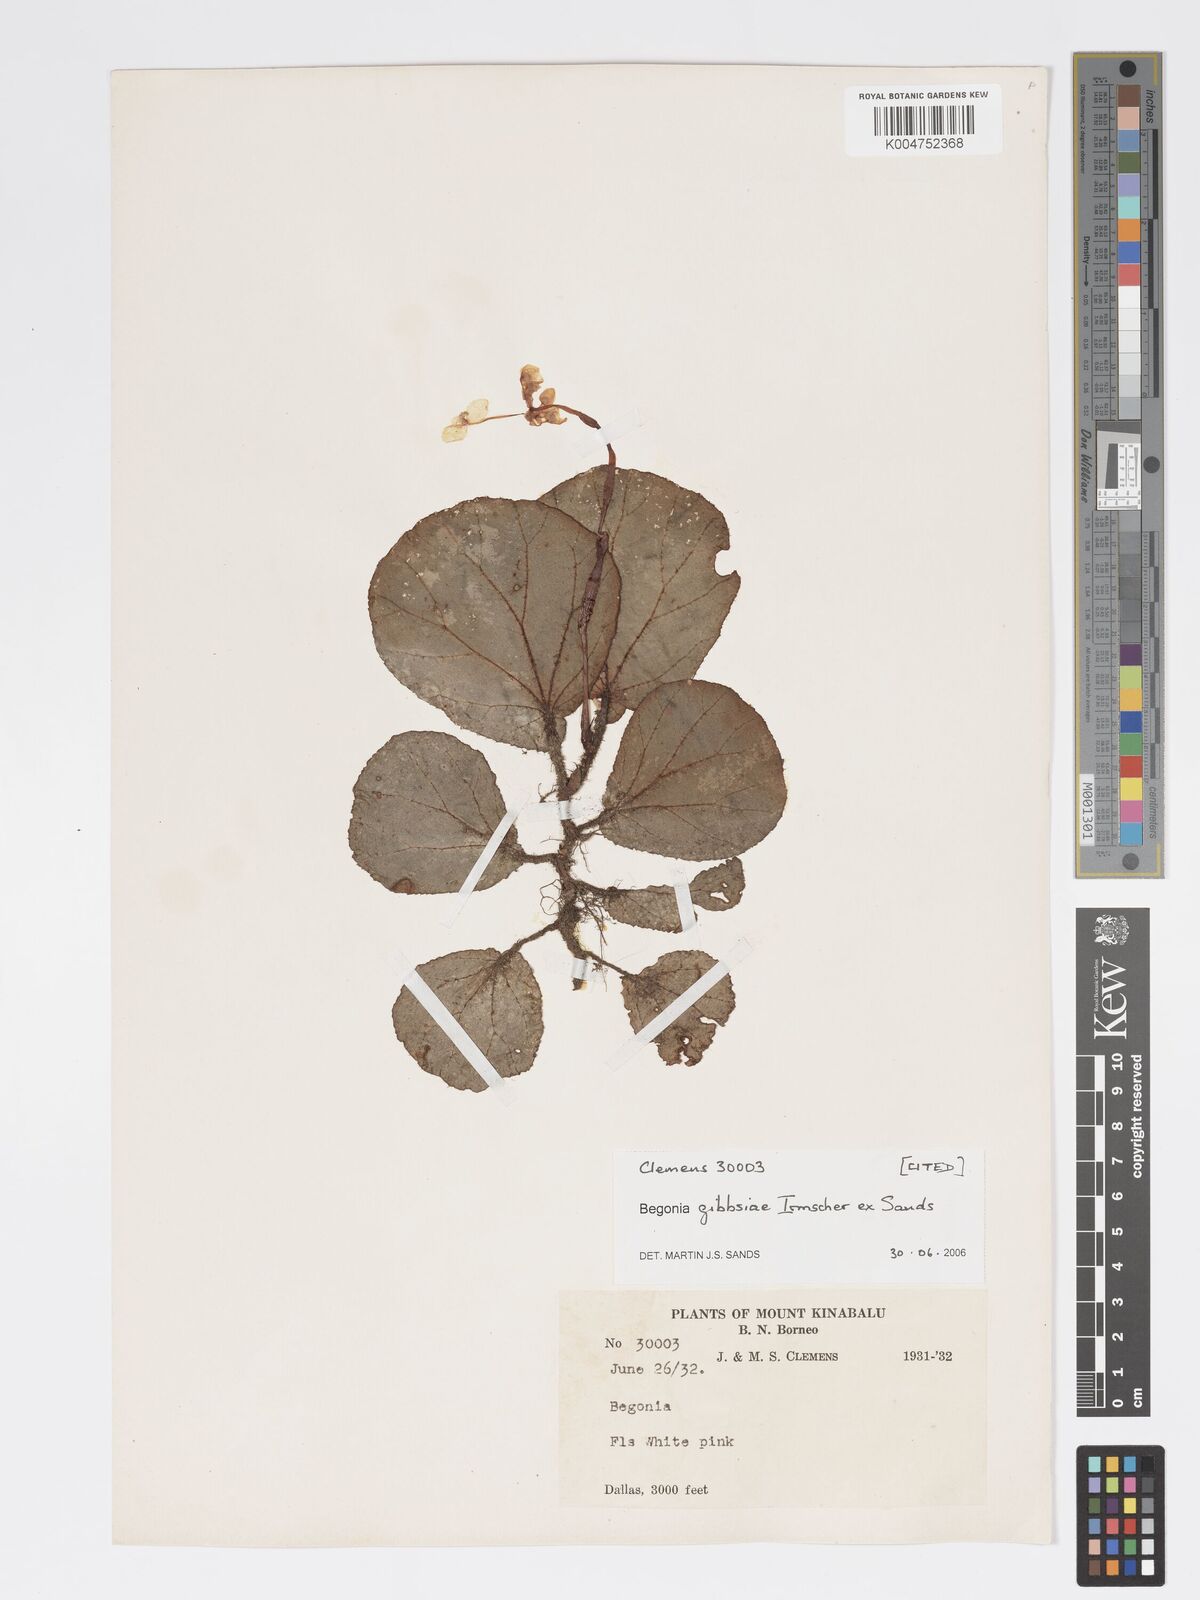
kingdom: Plantae
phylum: Tracheophyta
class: Magnoliopsida
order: Cucurbitales
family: Begoniaceae
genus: Begonia
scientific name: Begonia gibbsiae
